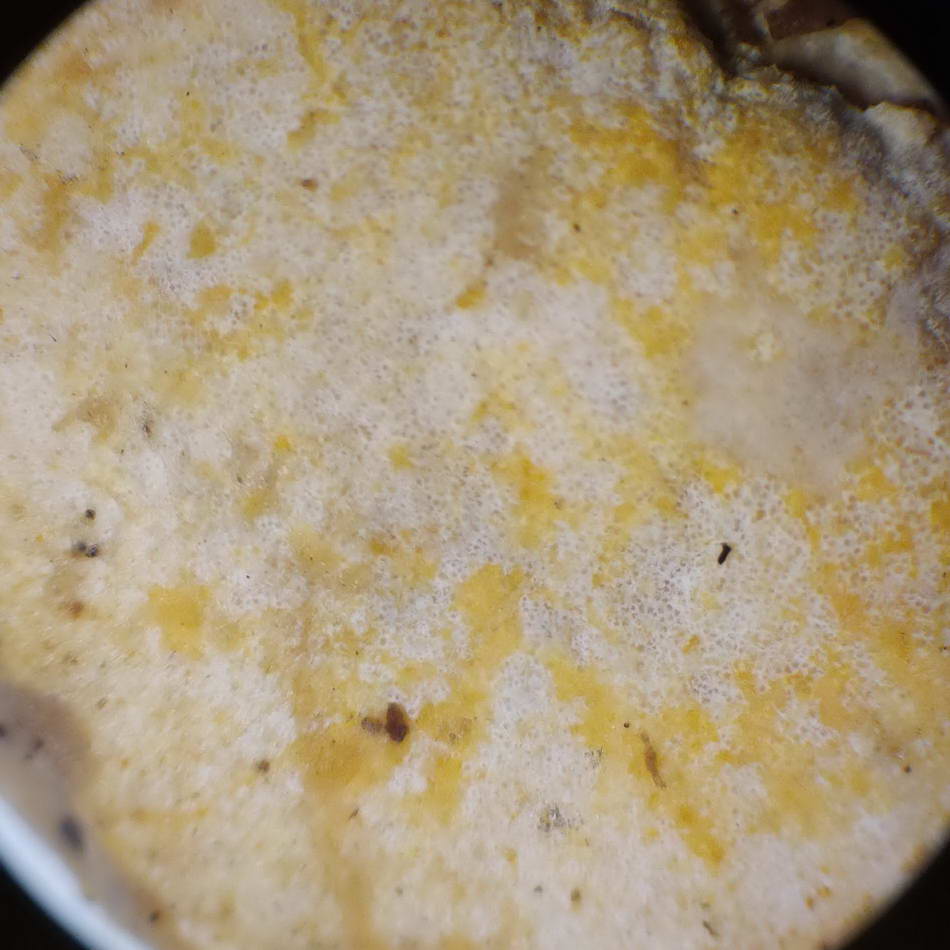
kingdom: Fungi
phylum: Ascomycota
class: Sordariomycetes
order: Hypocreales
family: Hypocreaceae
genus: Protocrea
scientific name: Protocrea pallida
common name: bleg kødkerne
